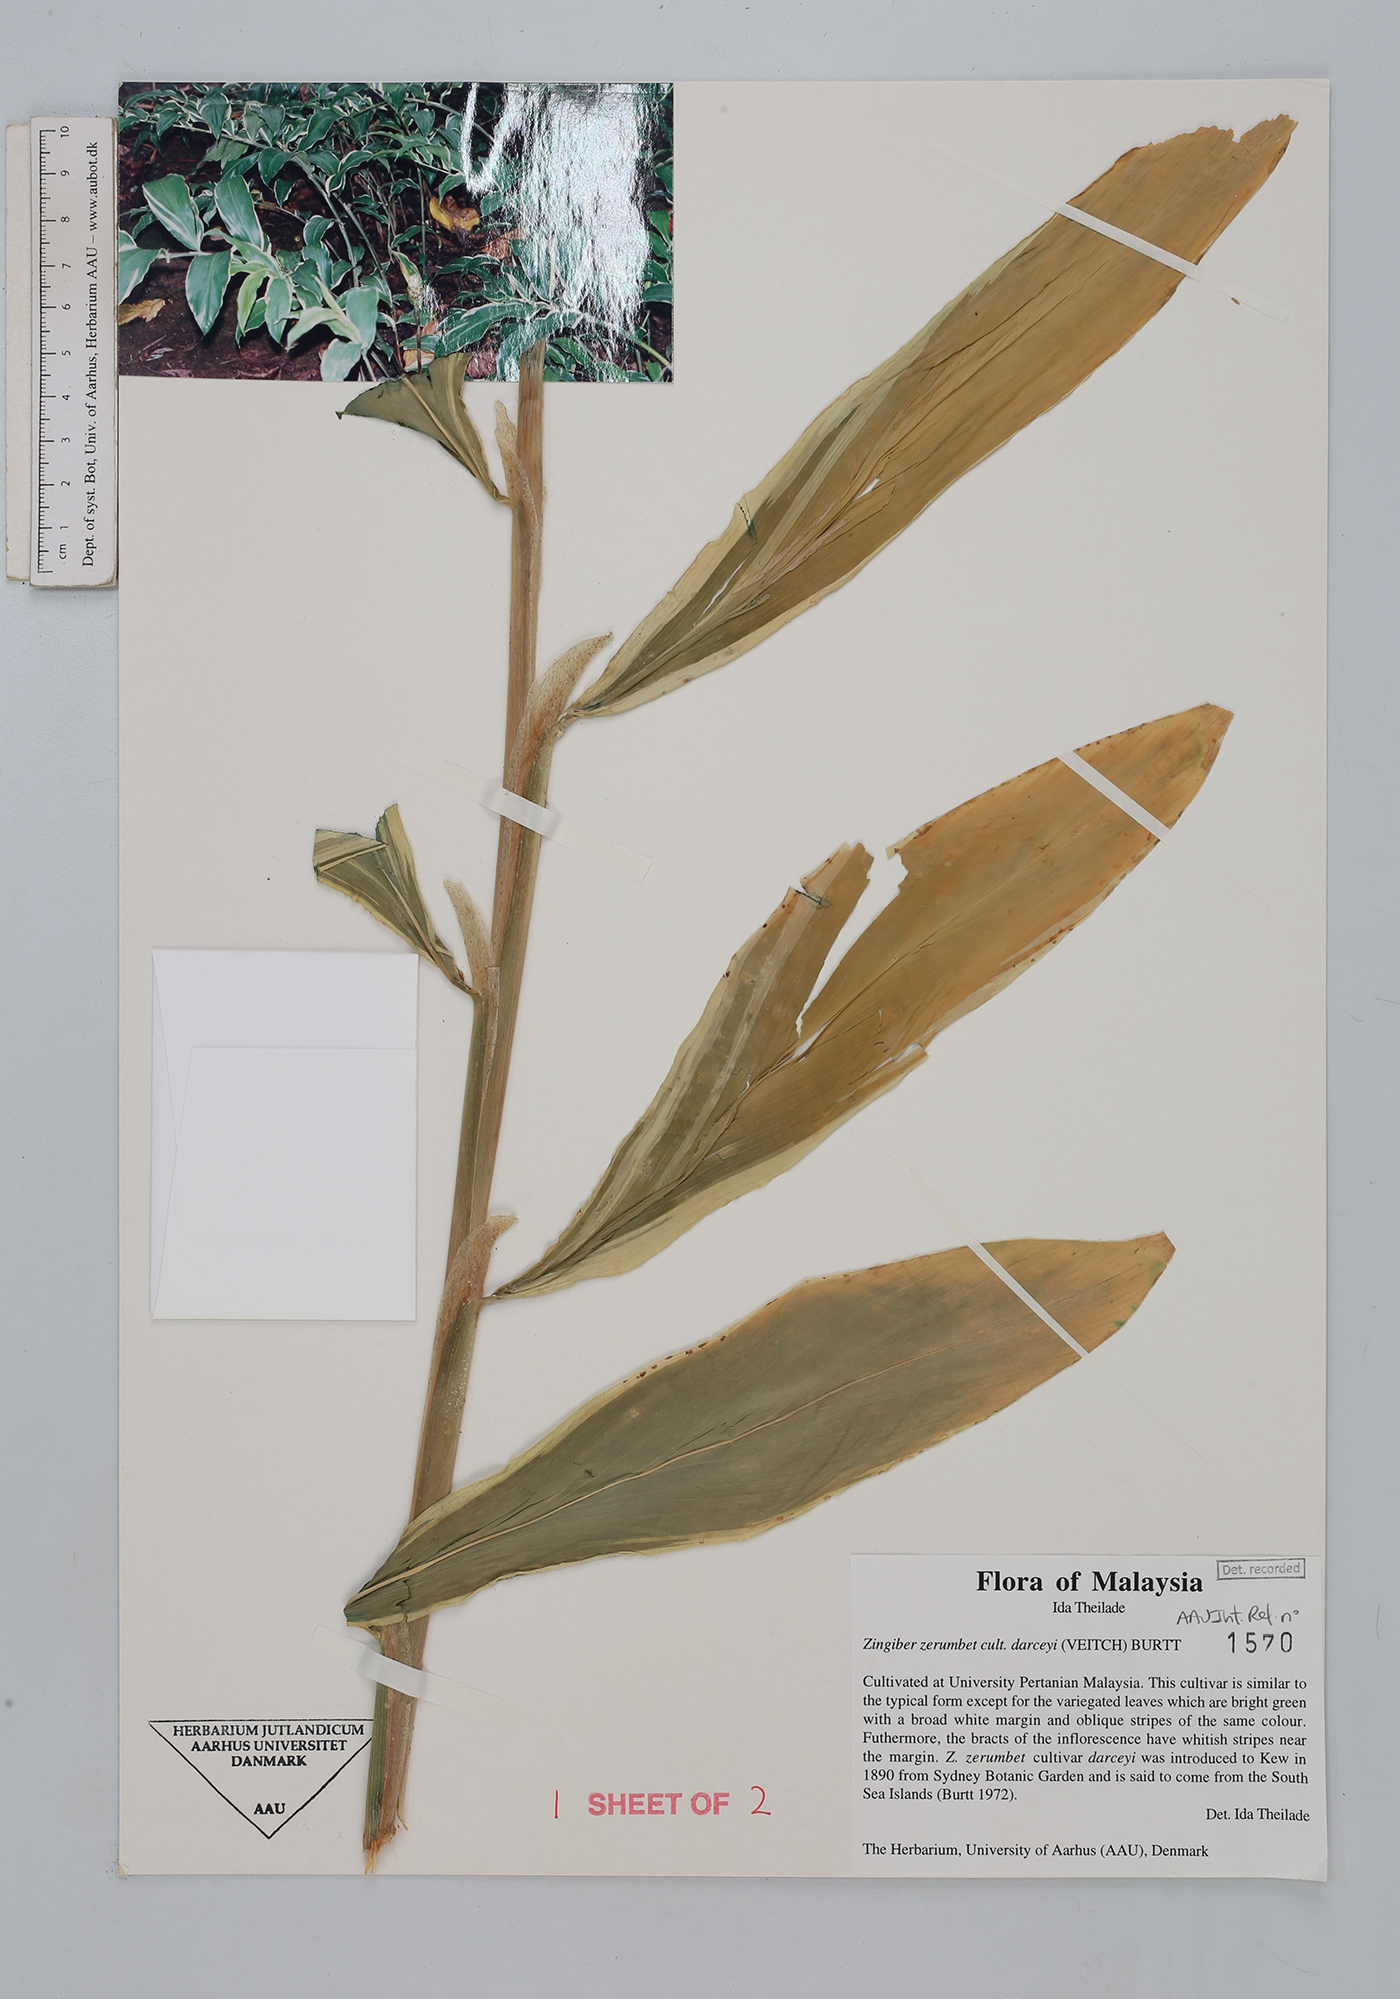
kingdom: Plantae
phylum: Tracheophyta
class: Liliopsida
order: Zingiberales
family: Zingiberaceae
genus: Zingiber
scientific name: Zingiber zerumbet
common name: Bitter ginger
